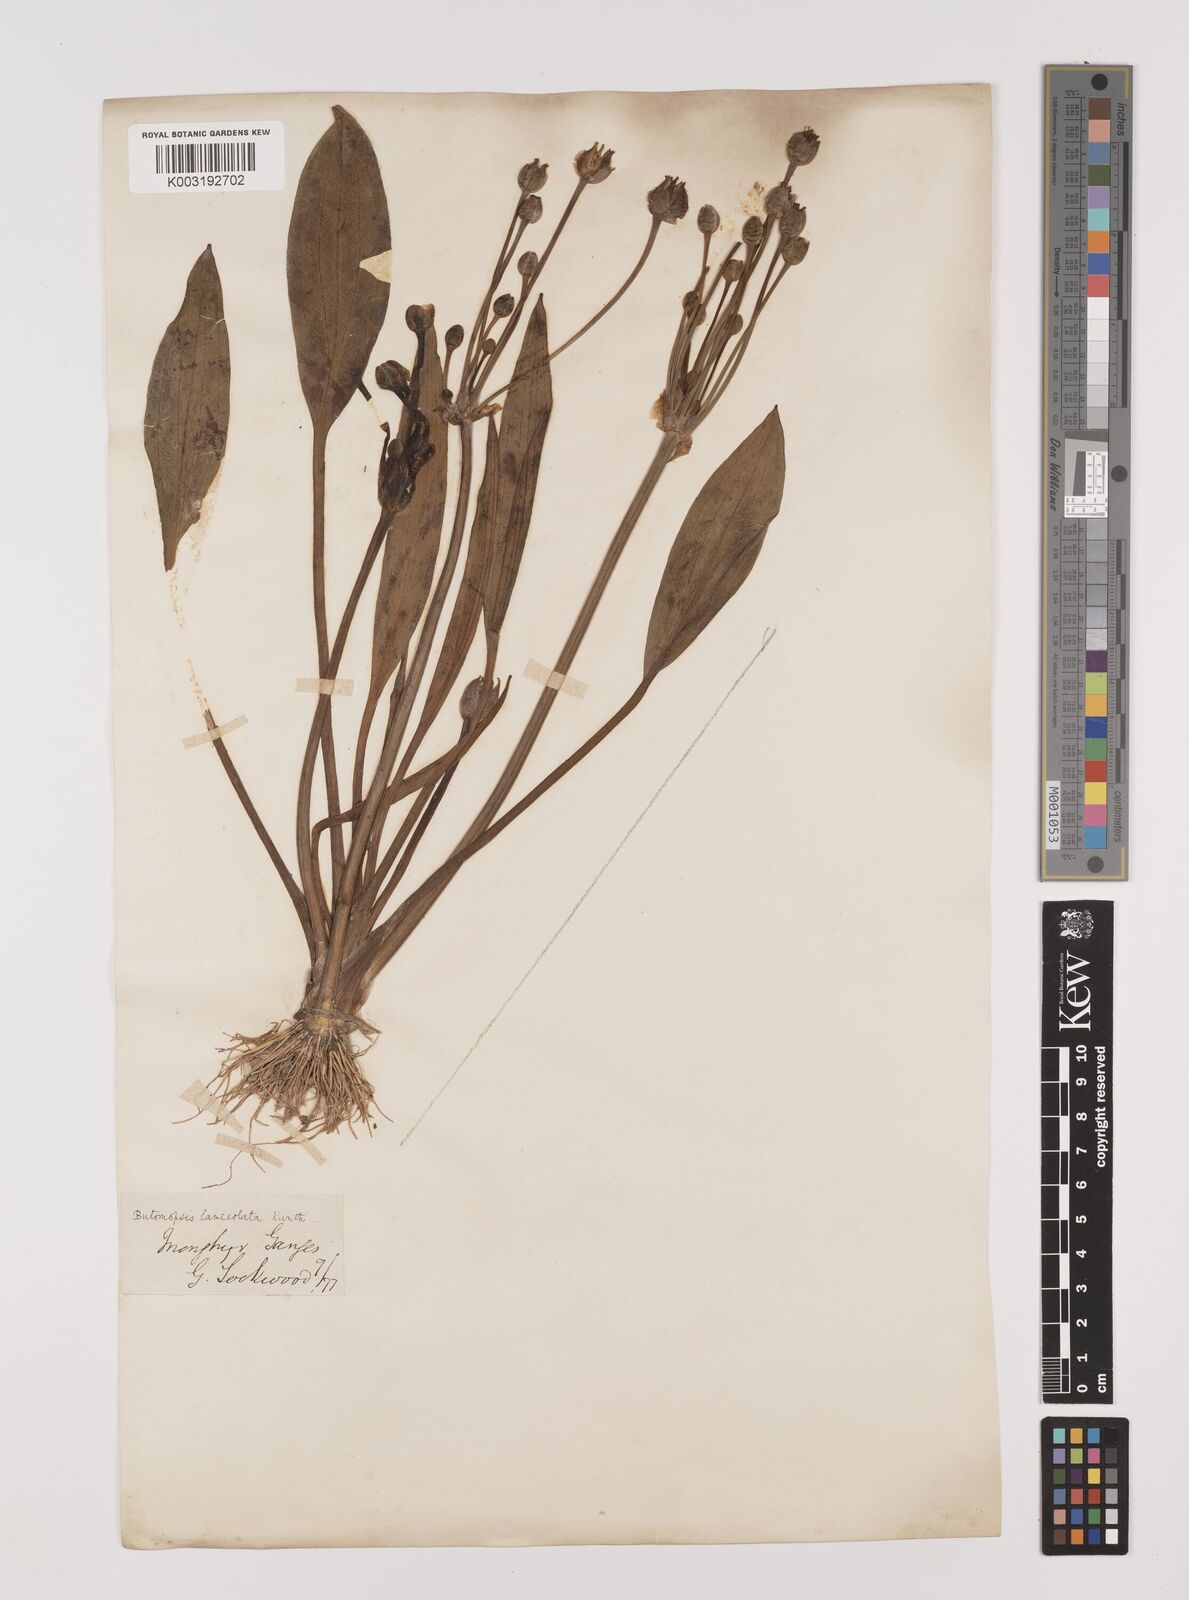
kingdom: Plantae
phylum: Tracheophyta
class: Liliopsida
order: Alismatales
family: Alismataceae
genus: Butomopsis
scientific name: Butomopsis latifolia
